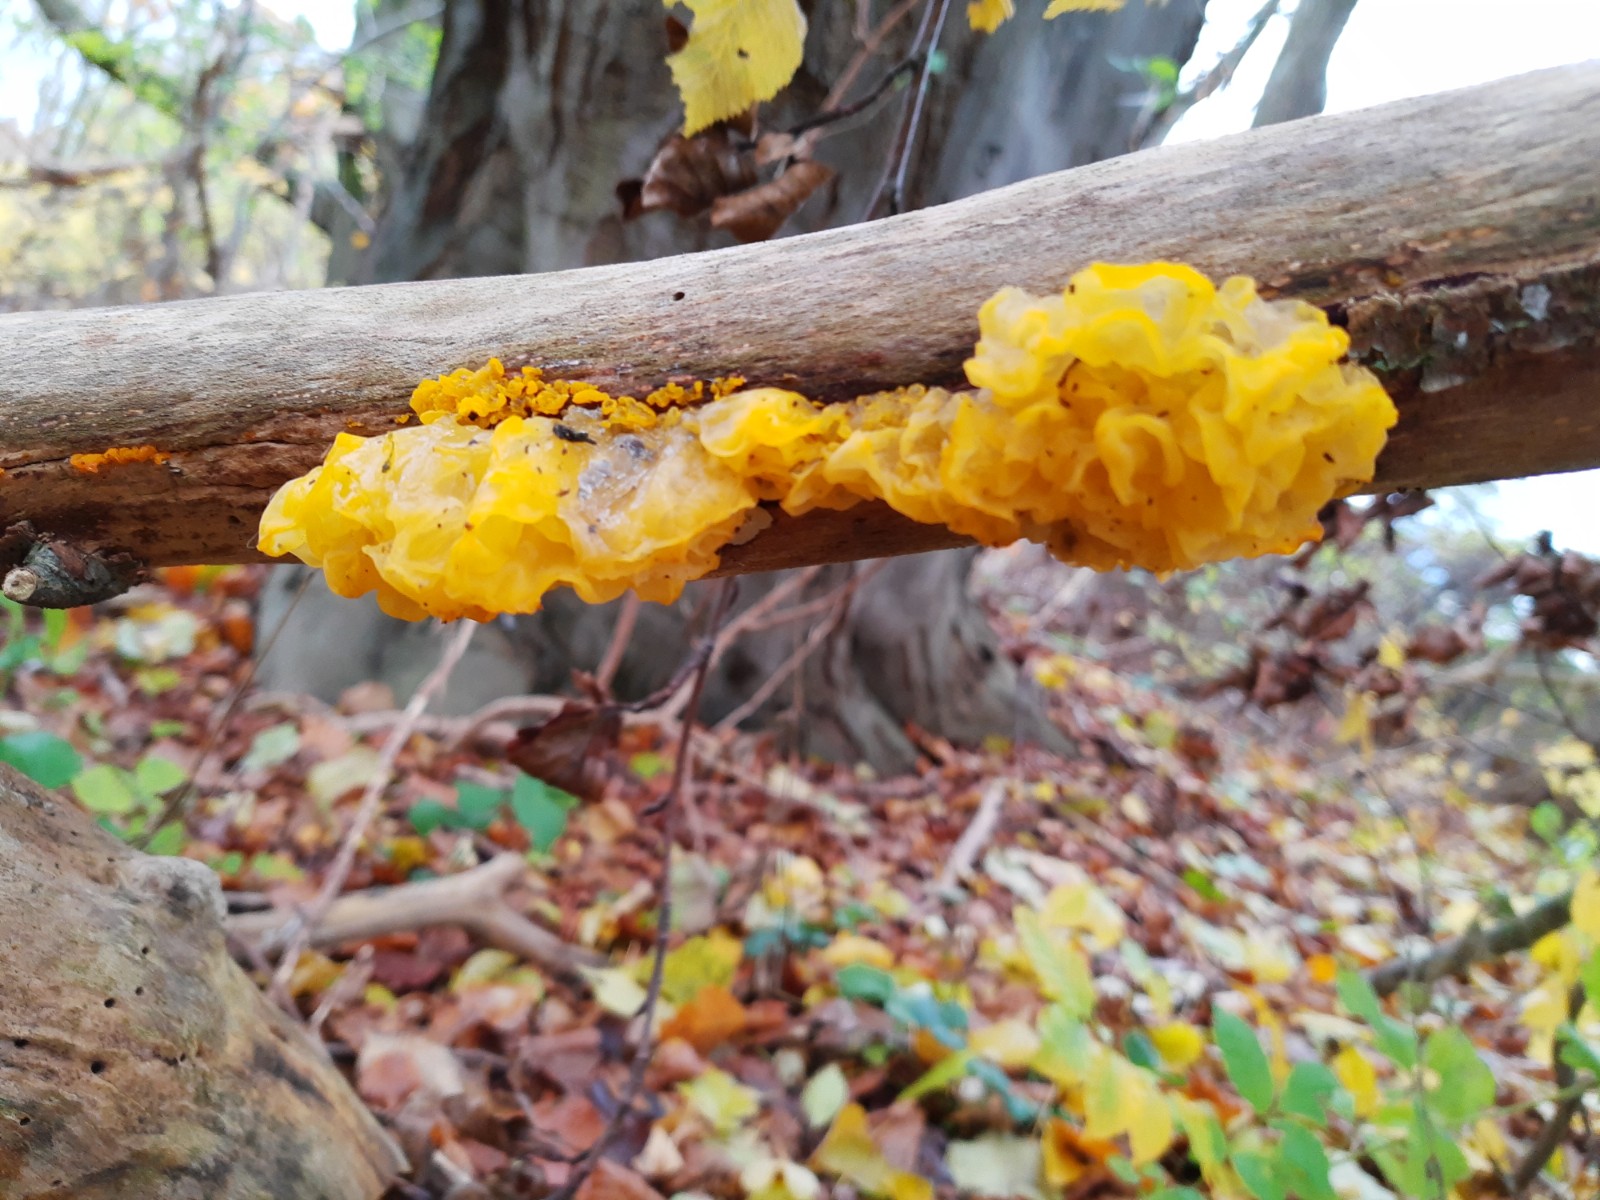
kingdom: Fungi
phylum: Basidiomycota
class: Tremellomycetes
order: Tremellales
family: Tremellaceae
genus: Tremella
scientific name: Tremella mesenterica
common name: gul bævresvamp
